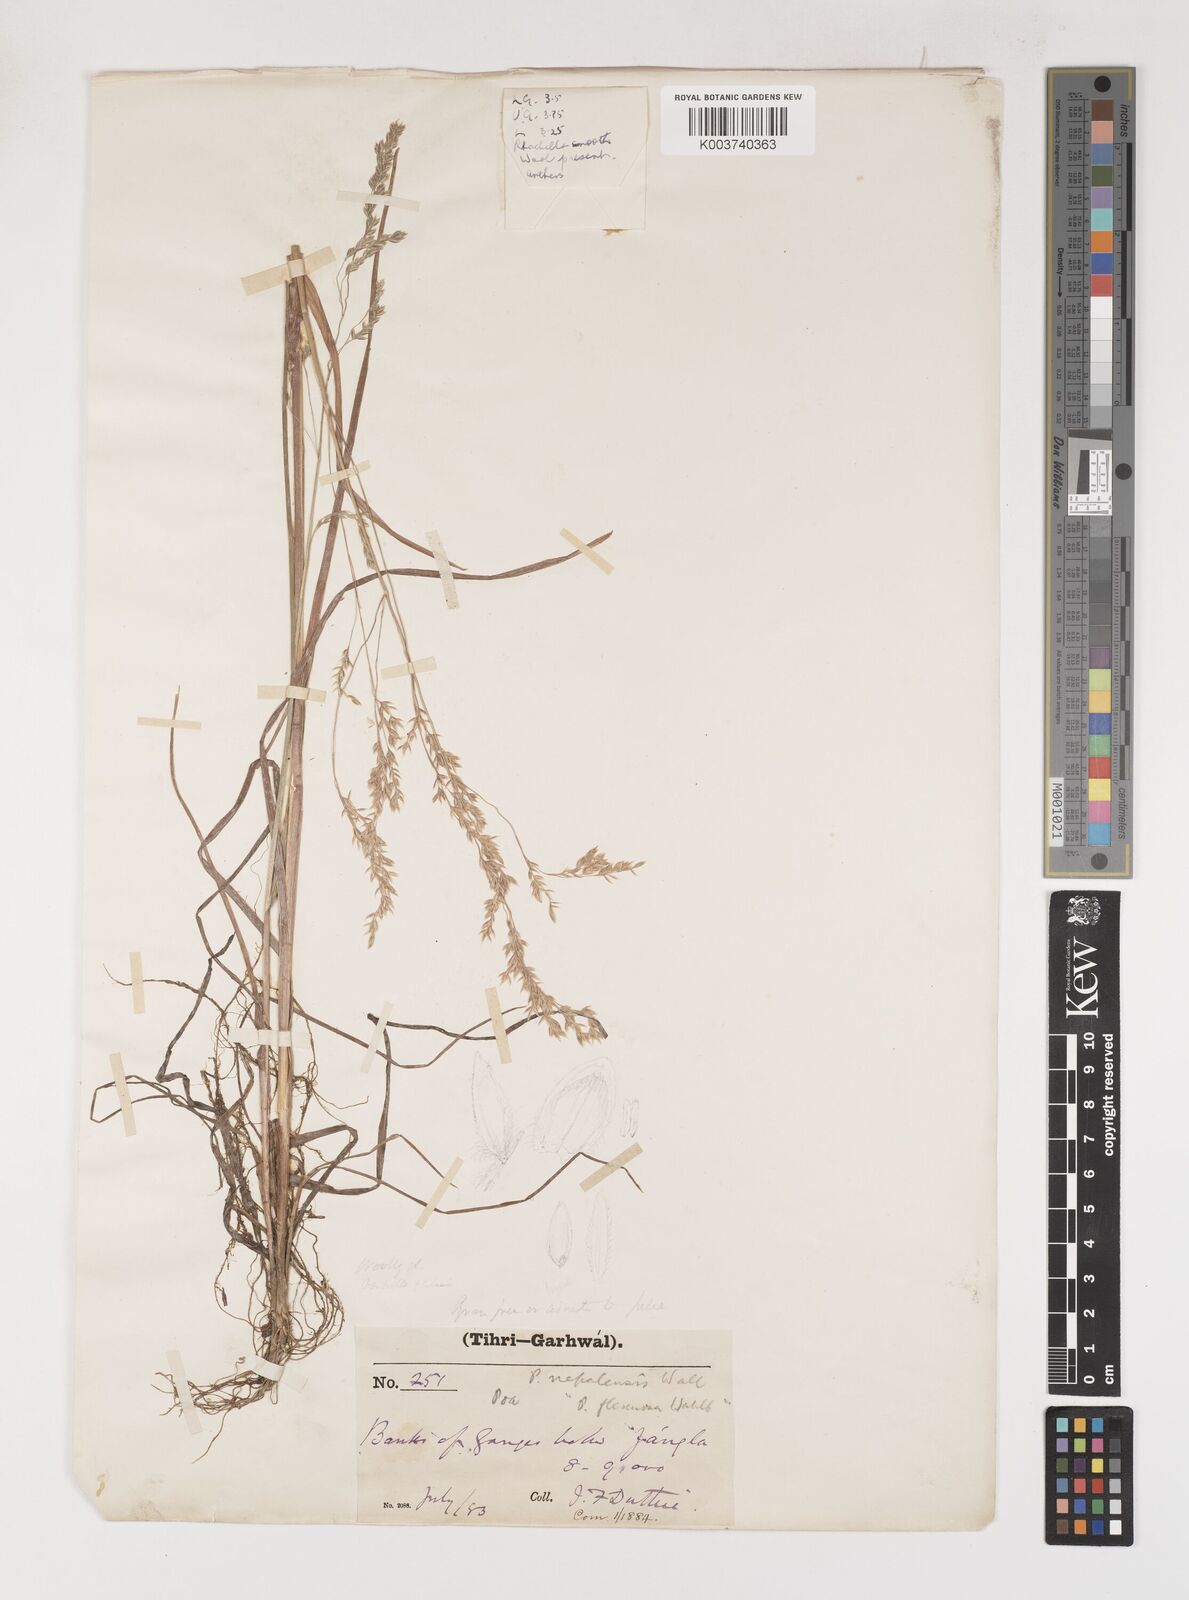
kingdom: Plantae
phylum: Tracheophyta
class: Liliopsida
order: Poales
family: Poaceae
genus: Poa
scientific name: Poa stapfiana
